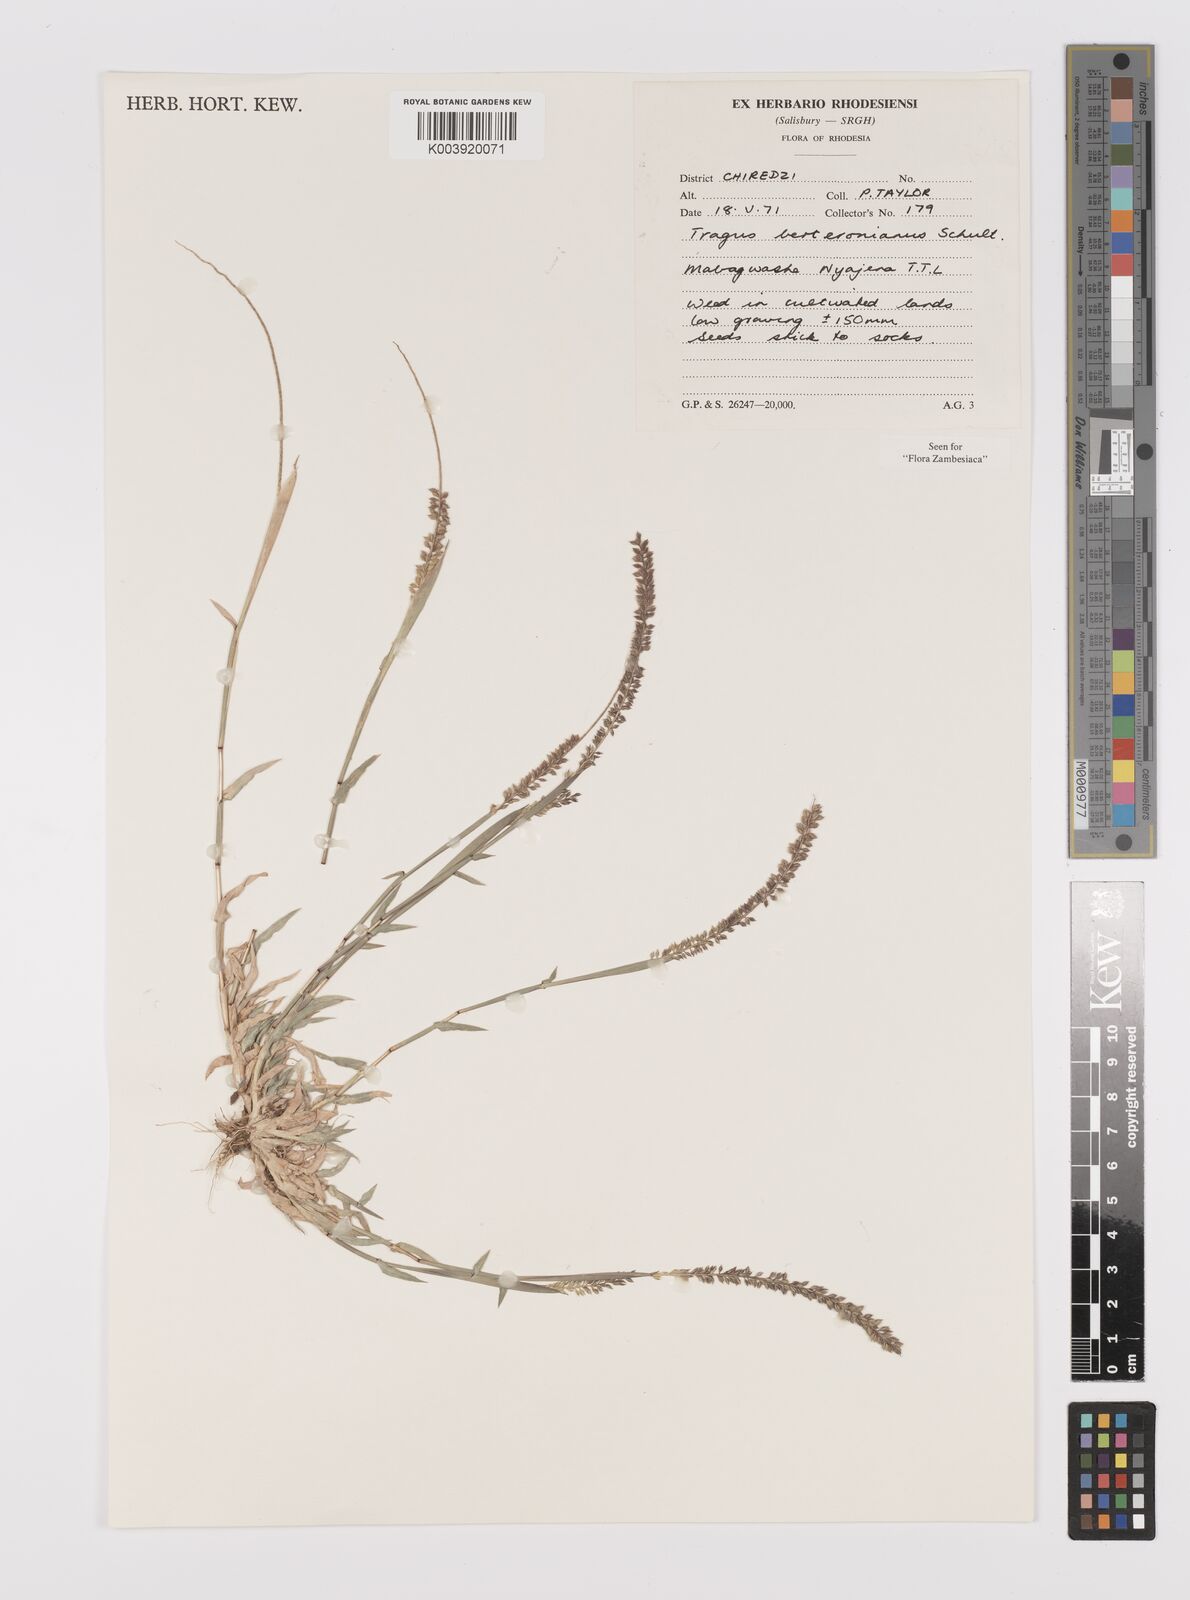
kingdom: Plantae
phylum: Tracheophyta
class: Liliopsida
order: Poales
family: Poaceae
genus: Tragus
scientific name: Tragus berteronianus
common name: African bur-grass
